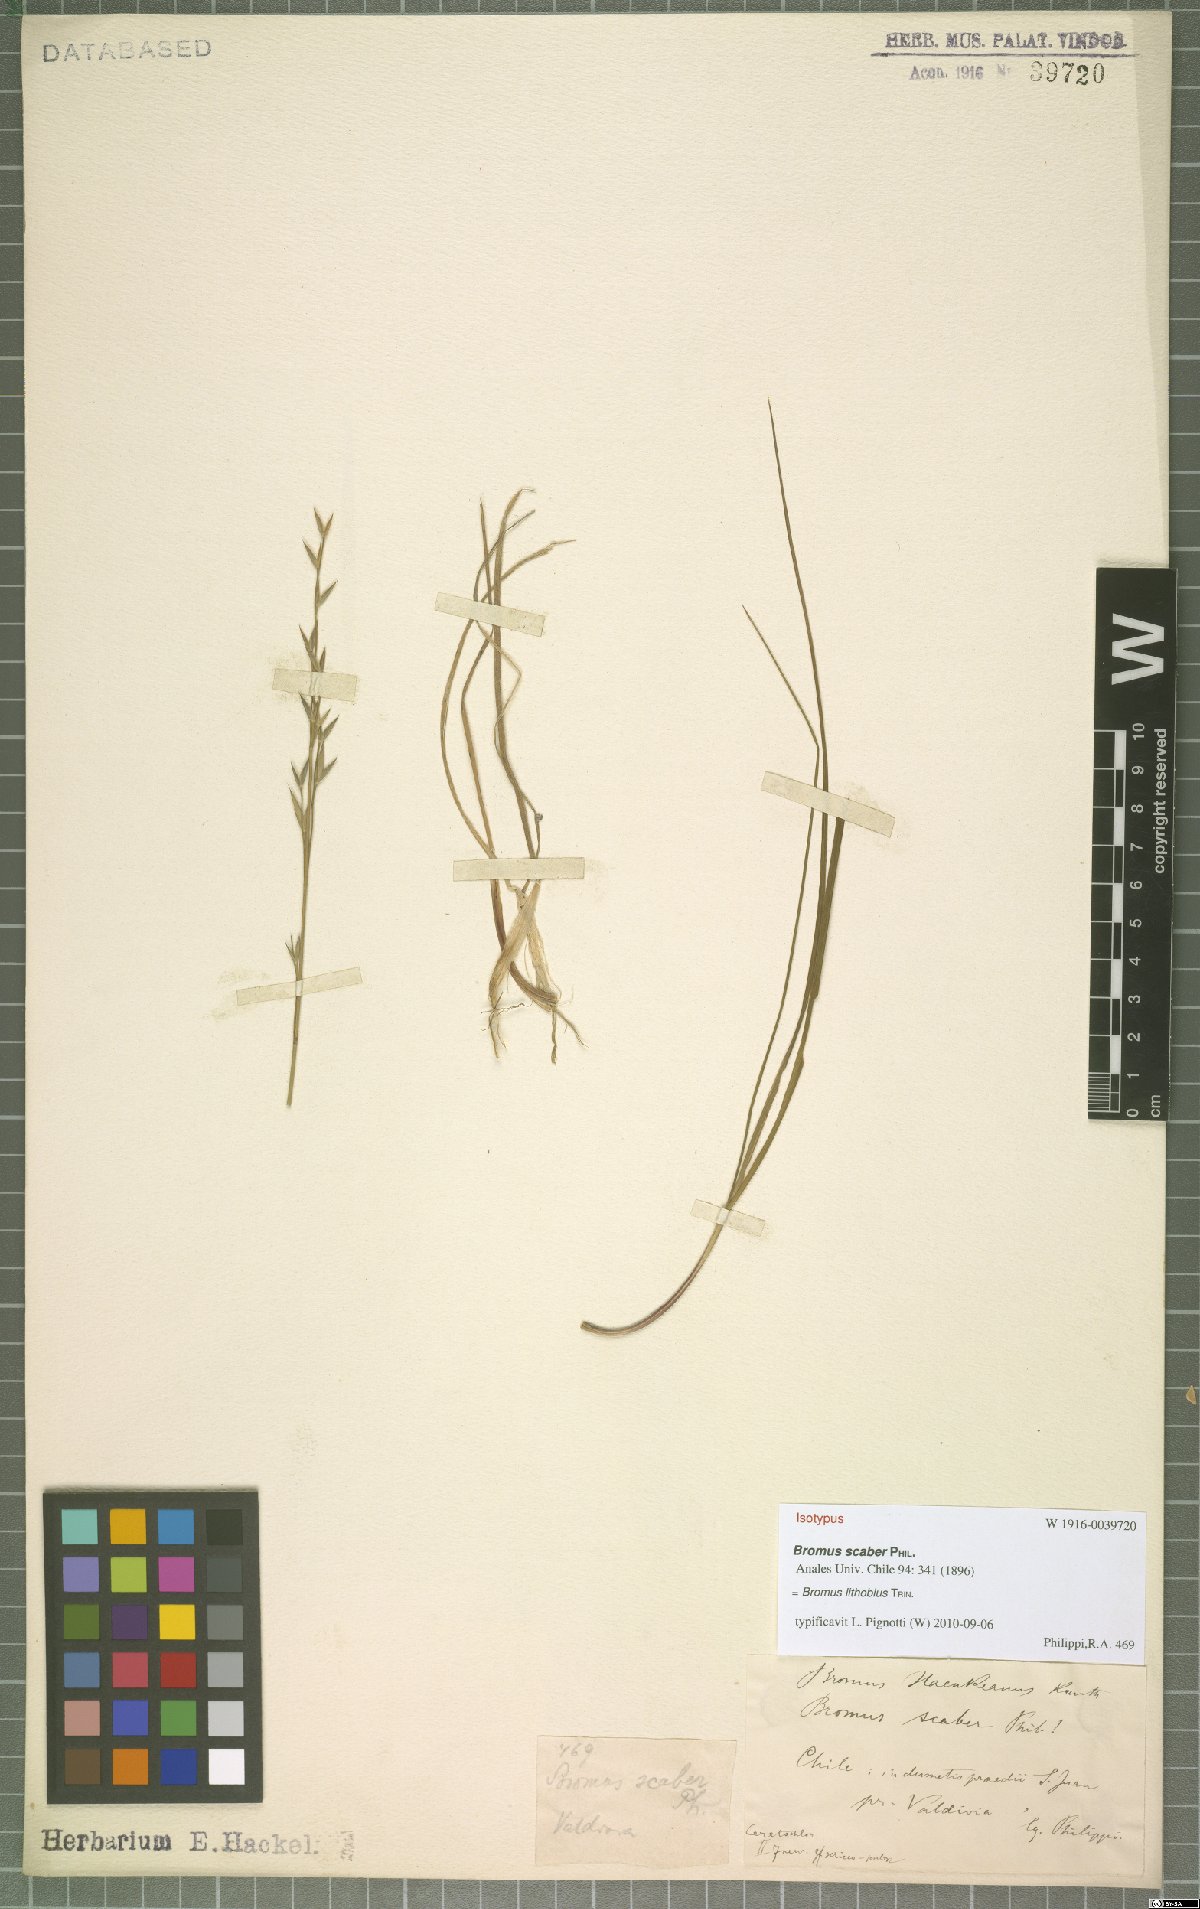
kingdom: Plantae
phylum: Tracheophyta
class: Liliopsida
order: Poales
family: Poaceae
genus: Bromus
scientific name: Bromus lithobius
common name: Chilean brome
